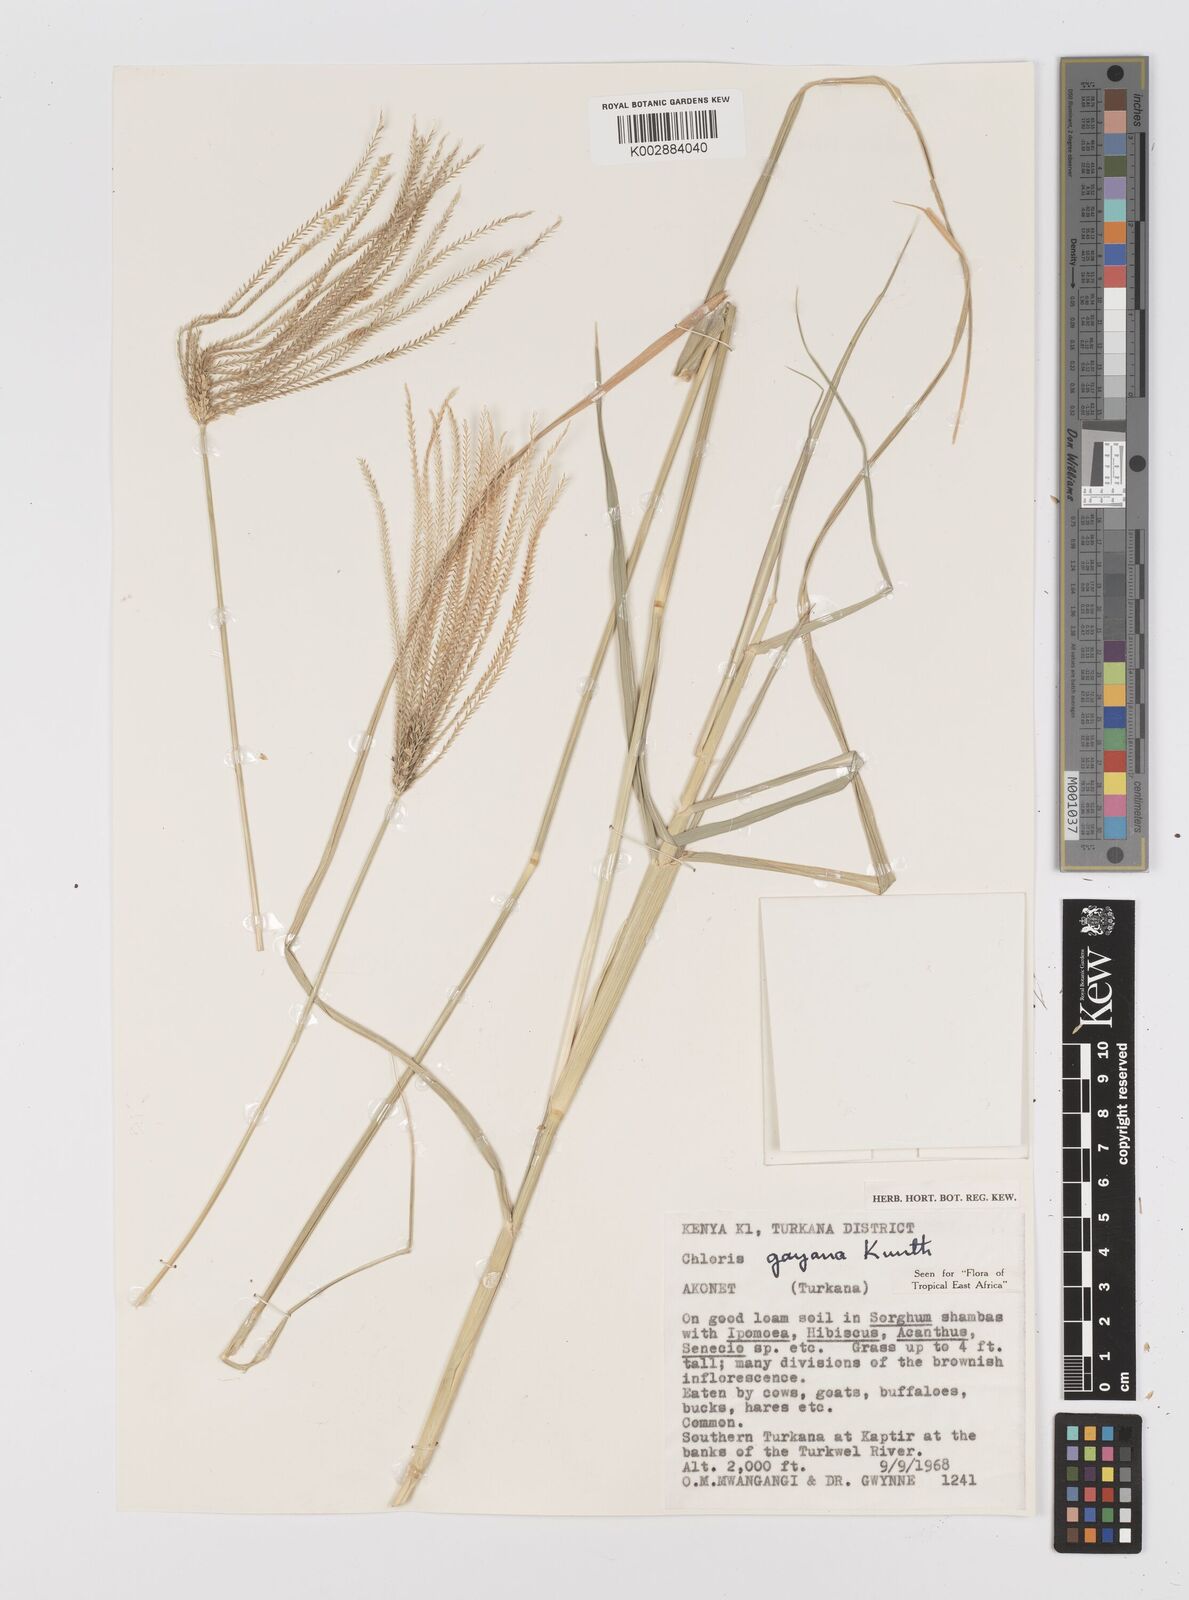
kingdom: Plantae
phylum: Tracheophyta
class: Liliopsida
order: Poales
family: Poaceae
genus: Chloris
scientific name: Chloris gayana
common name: Rhodes grass
